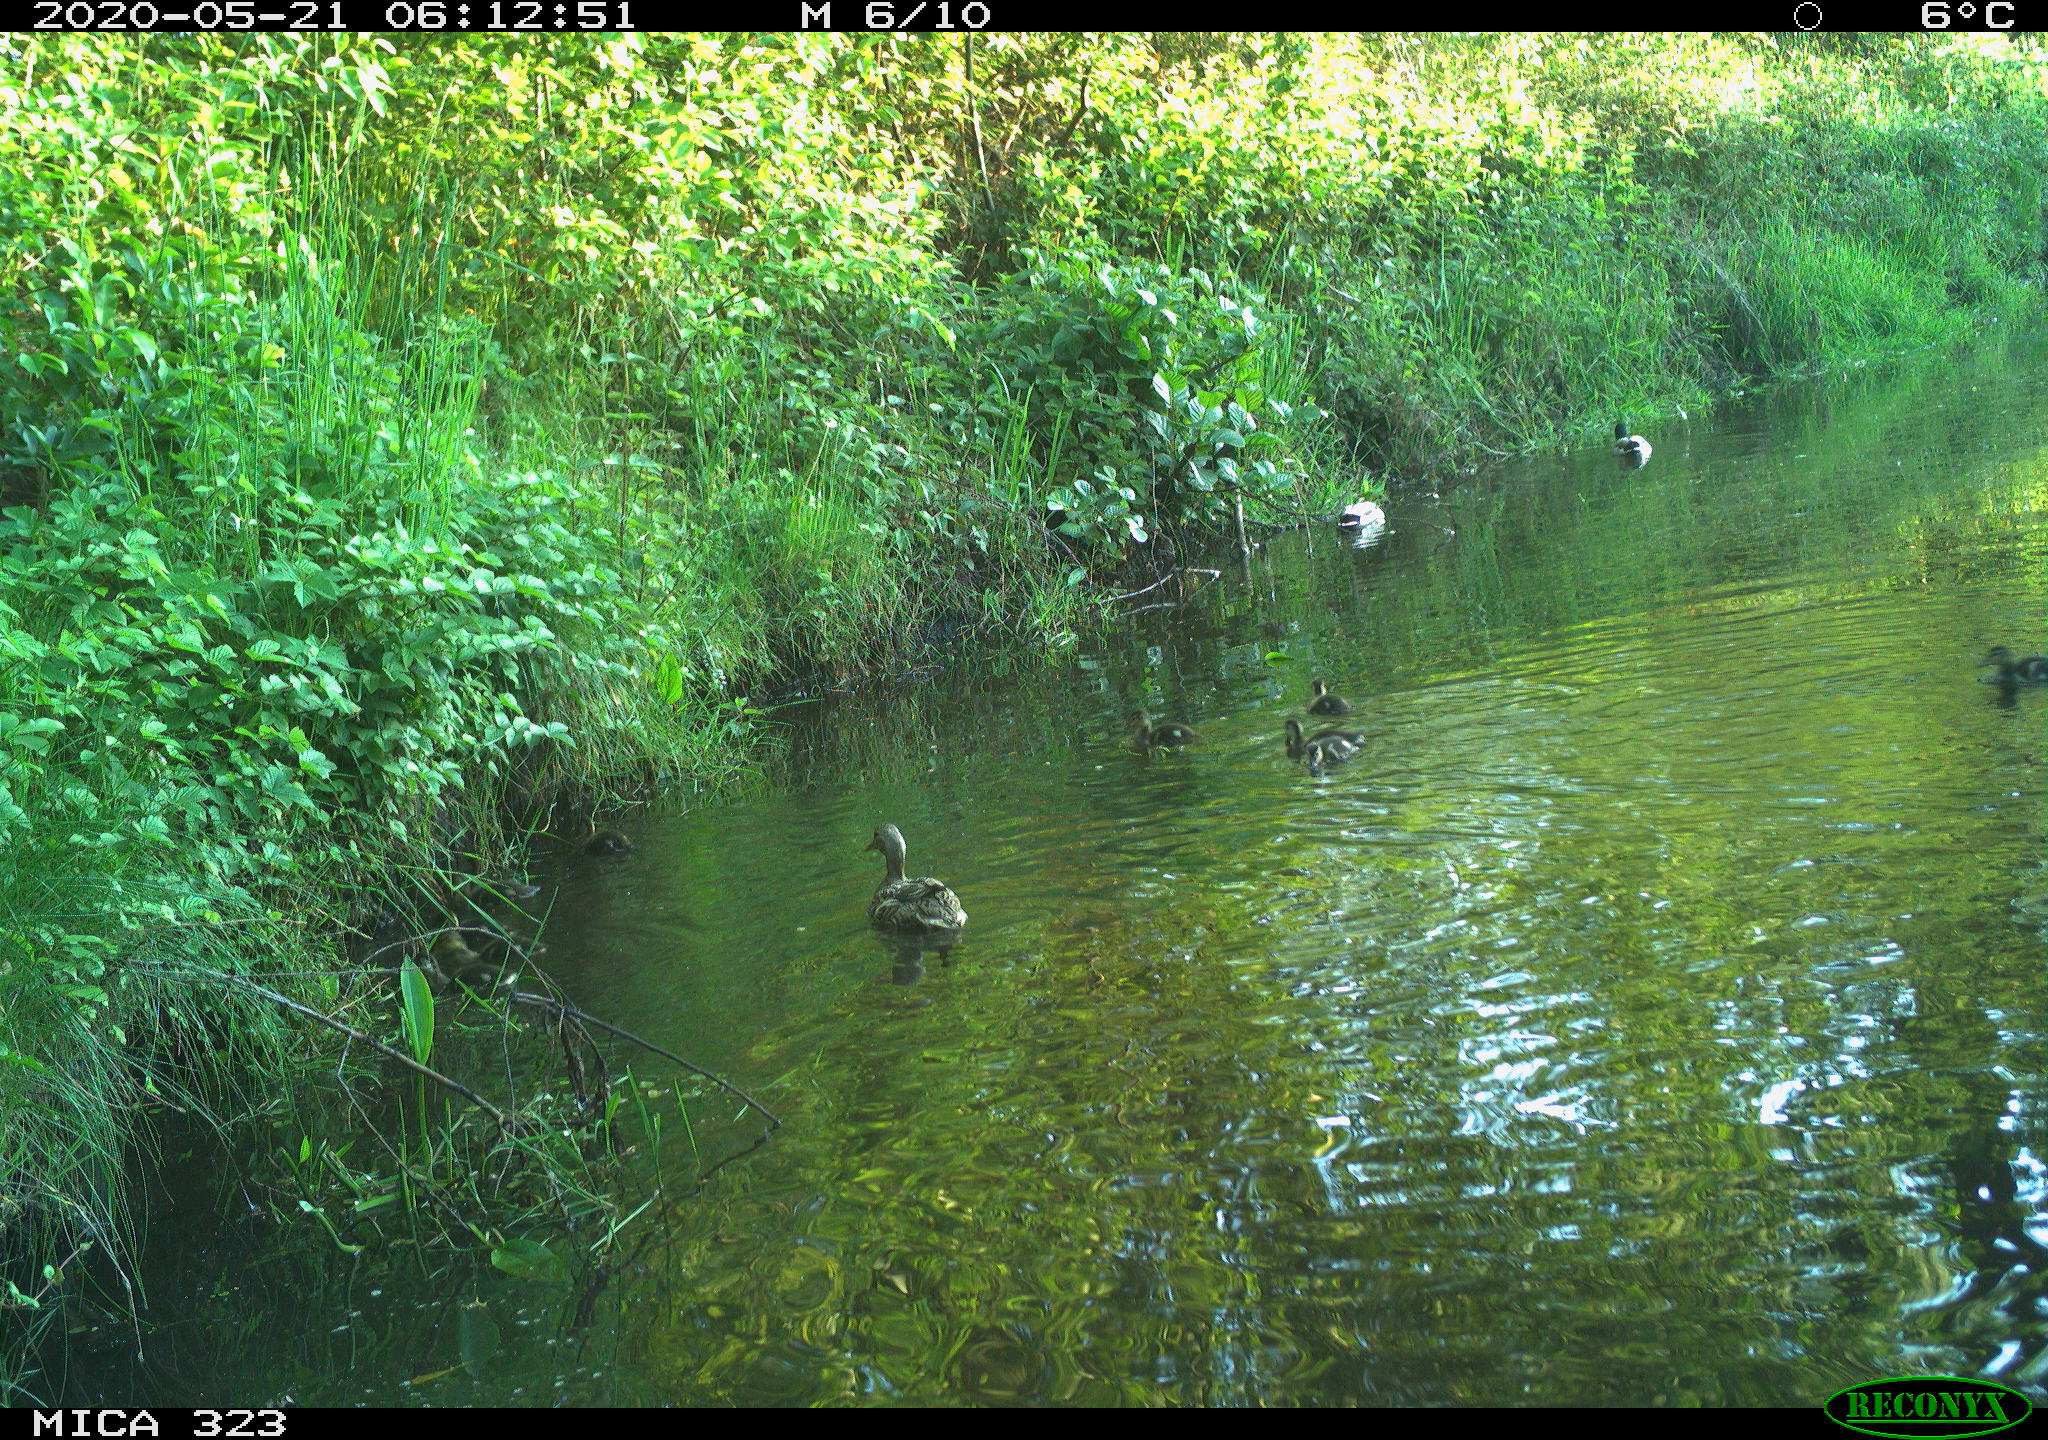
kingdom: Animalia
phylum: Chordata
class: Aves
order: Anseriformes
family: Anatidae
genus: Anas
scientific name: Anas platyrhynchos
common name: Mallard
